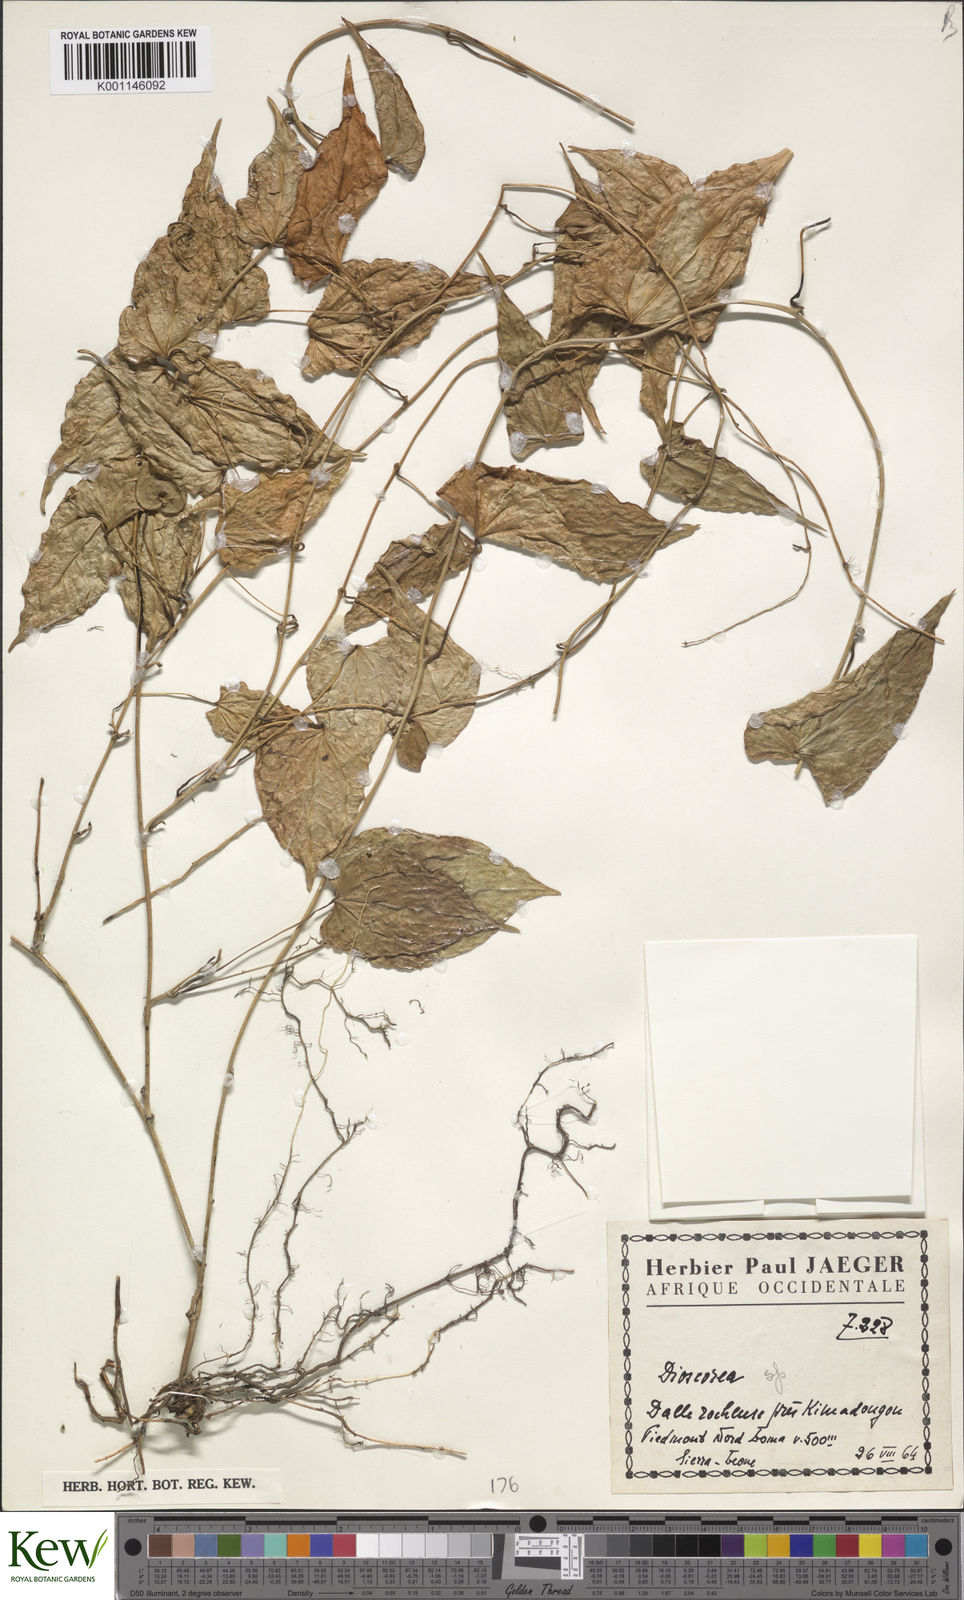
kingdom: Plantae
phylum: Tracheophyta
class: Liliopsida
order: Dioscoreales
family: Dioscoreaceae
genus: Dioscorea
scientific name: Dioscorea
